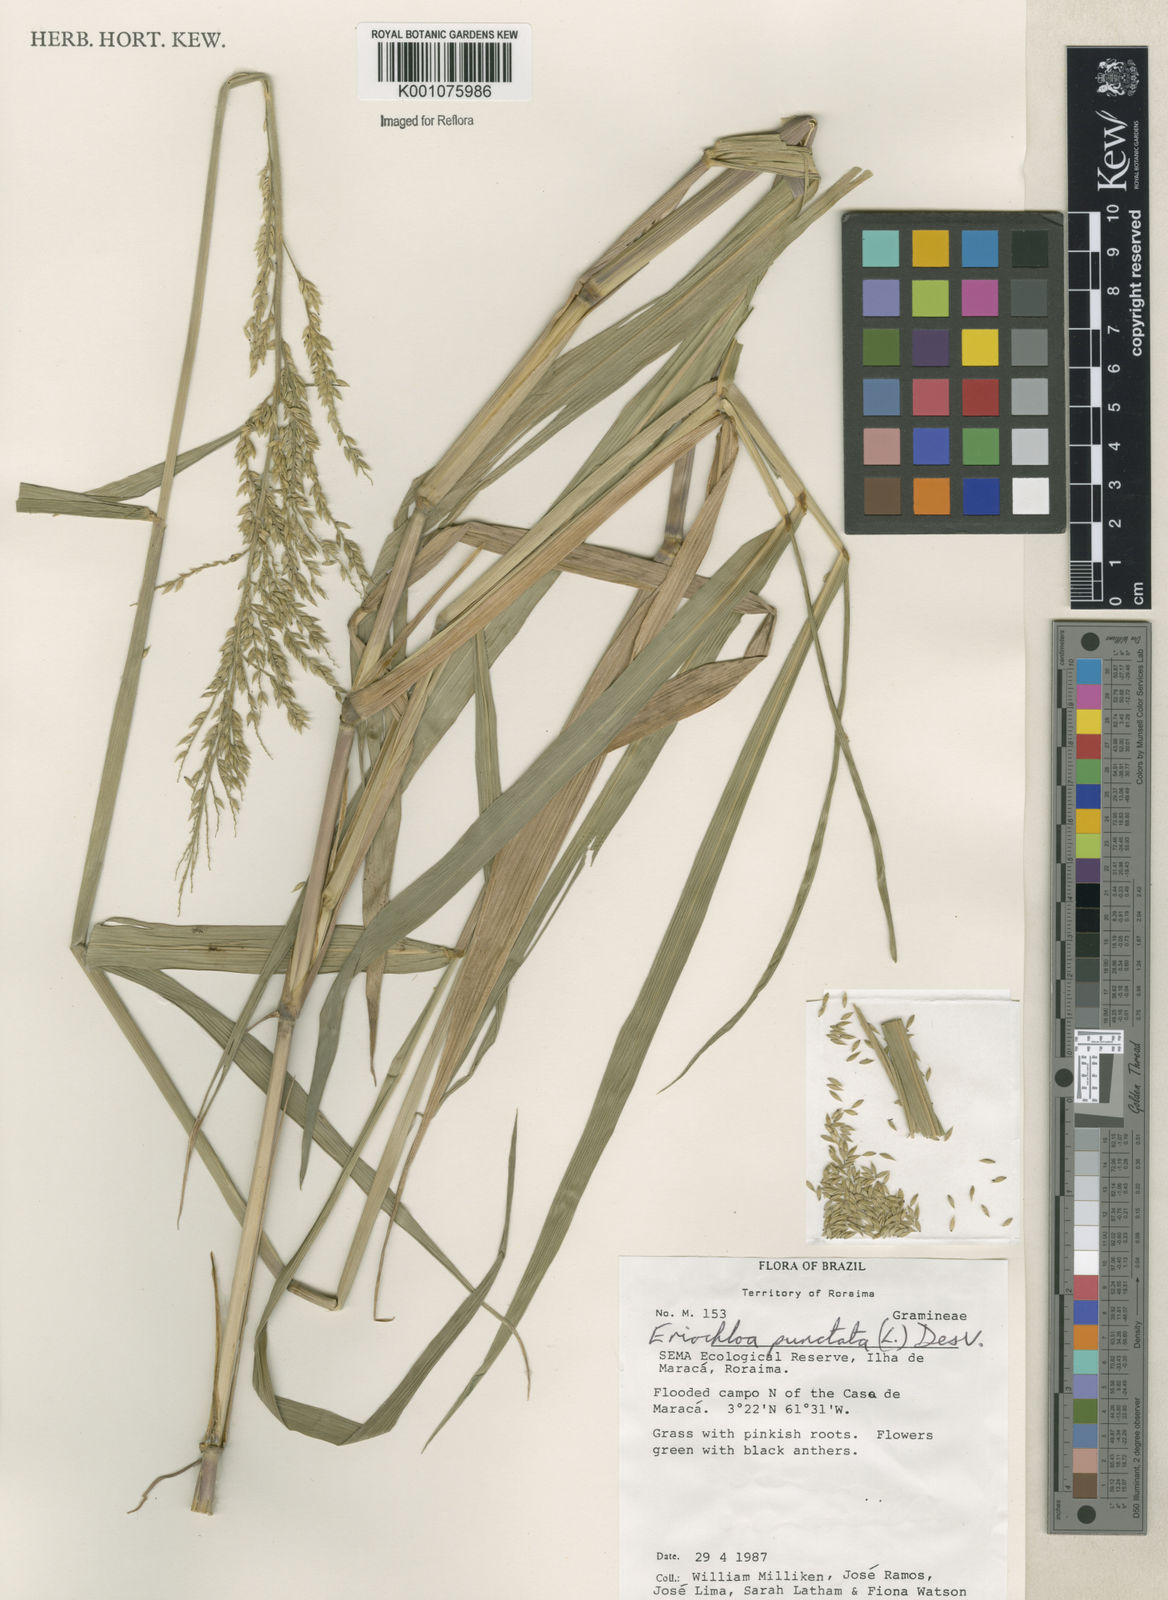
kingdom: Plantae
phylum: Tracheophyta
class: Liliopsida
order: Poales
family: Poaceae
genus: Eriochloa
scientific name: Eriochloa punctata
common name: Louisiana cupgrass
